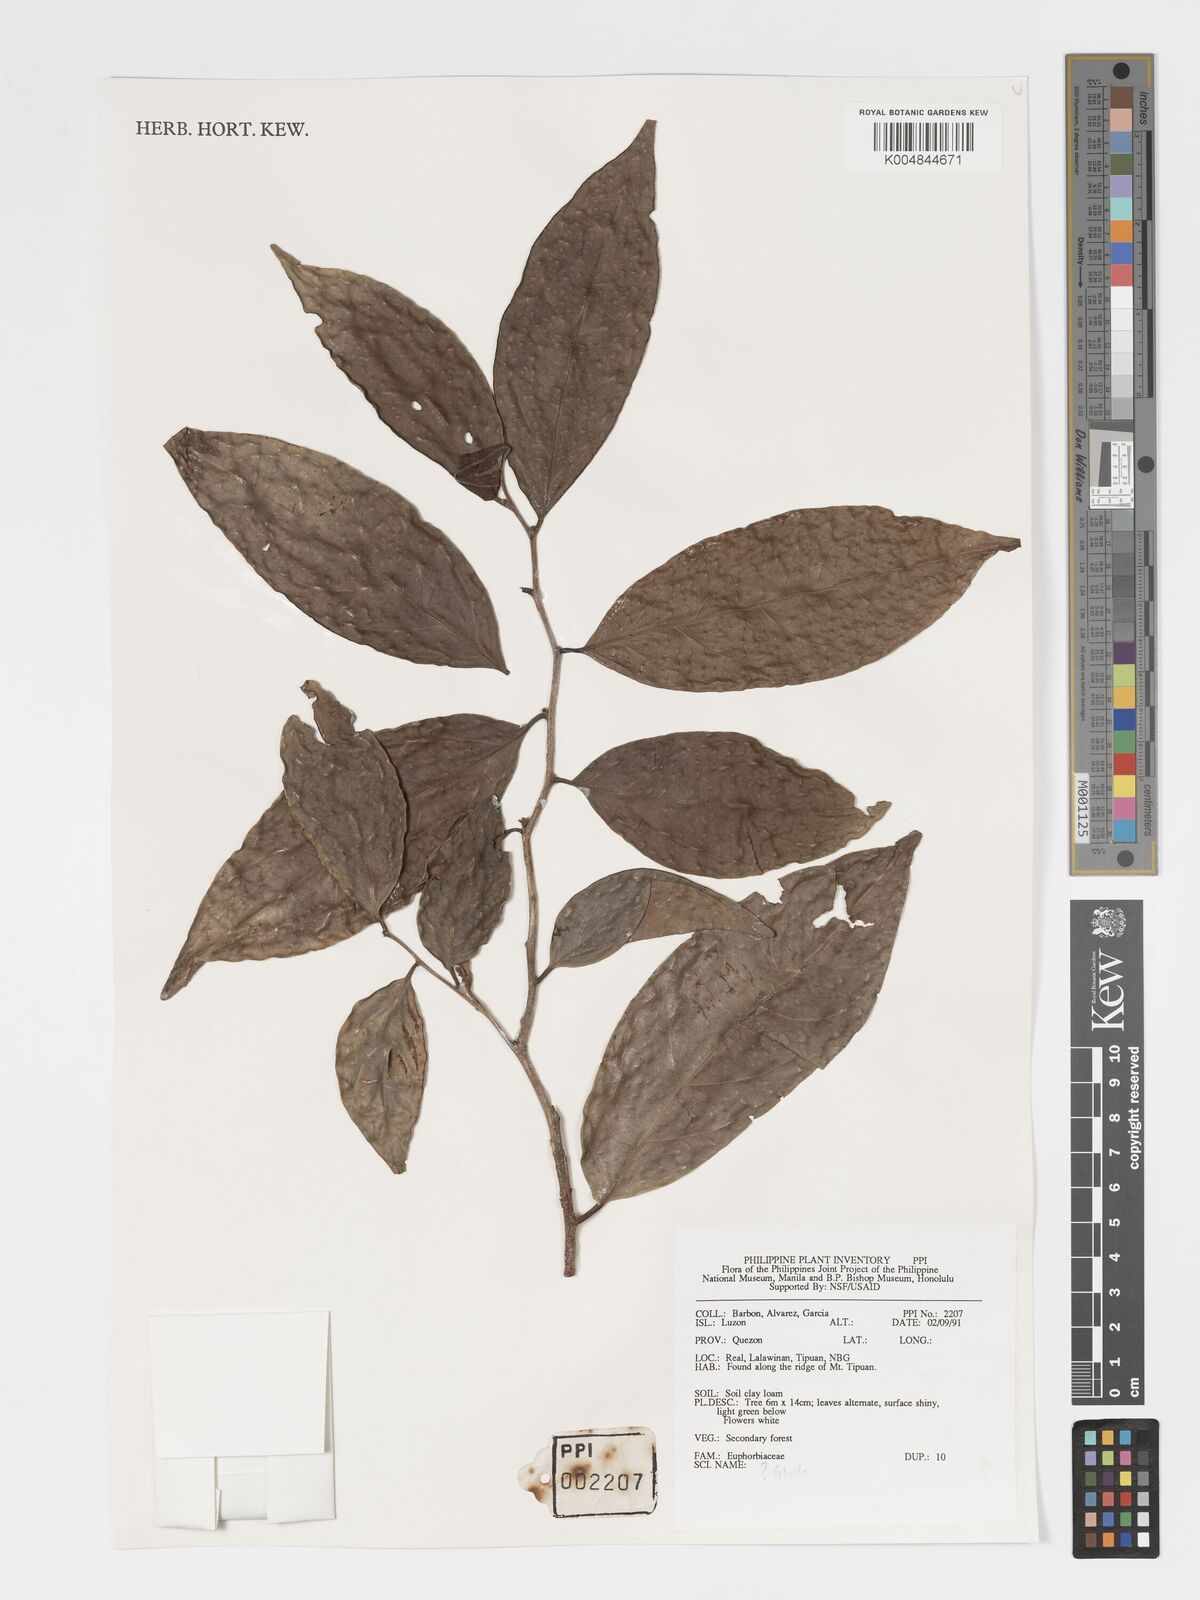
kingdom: Plantae
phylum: Tracheophyta
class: Magnoliopsida
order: Malpighiales
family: Phyllanthaceae
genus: Glochidion
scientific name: Glochidion
